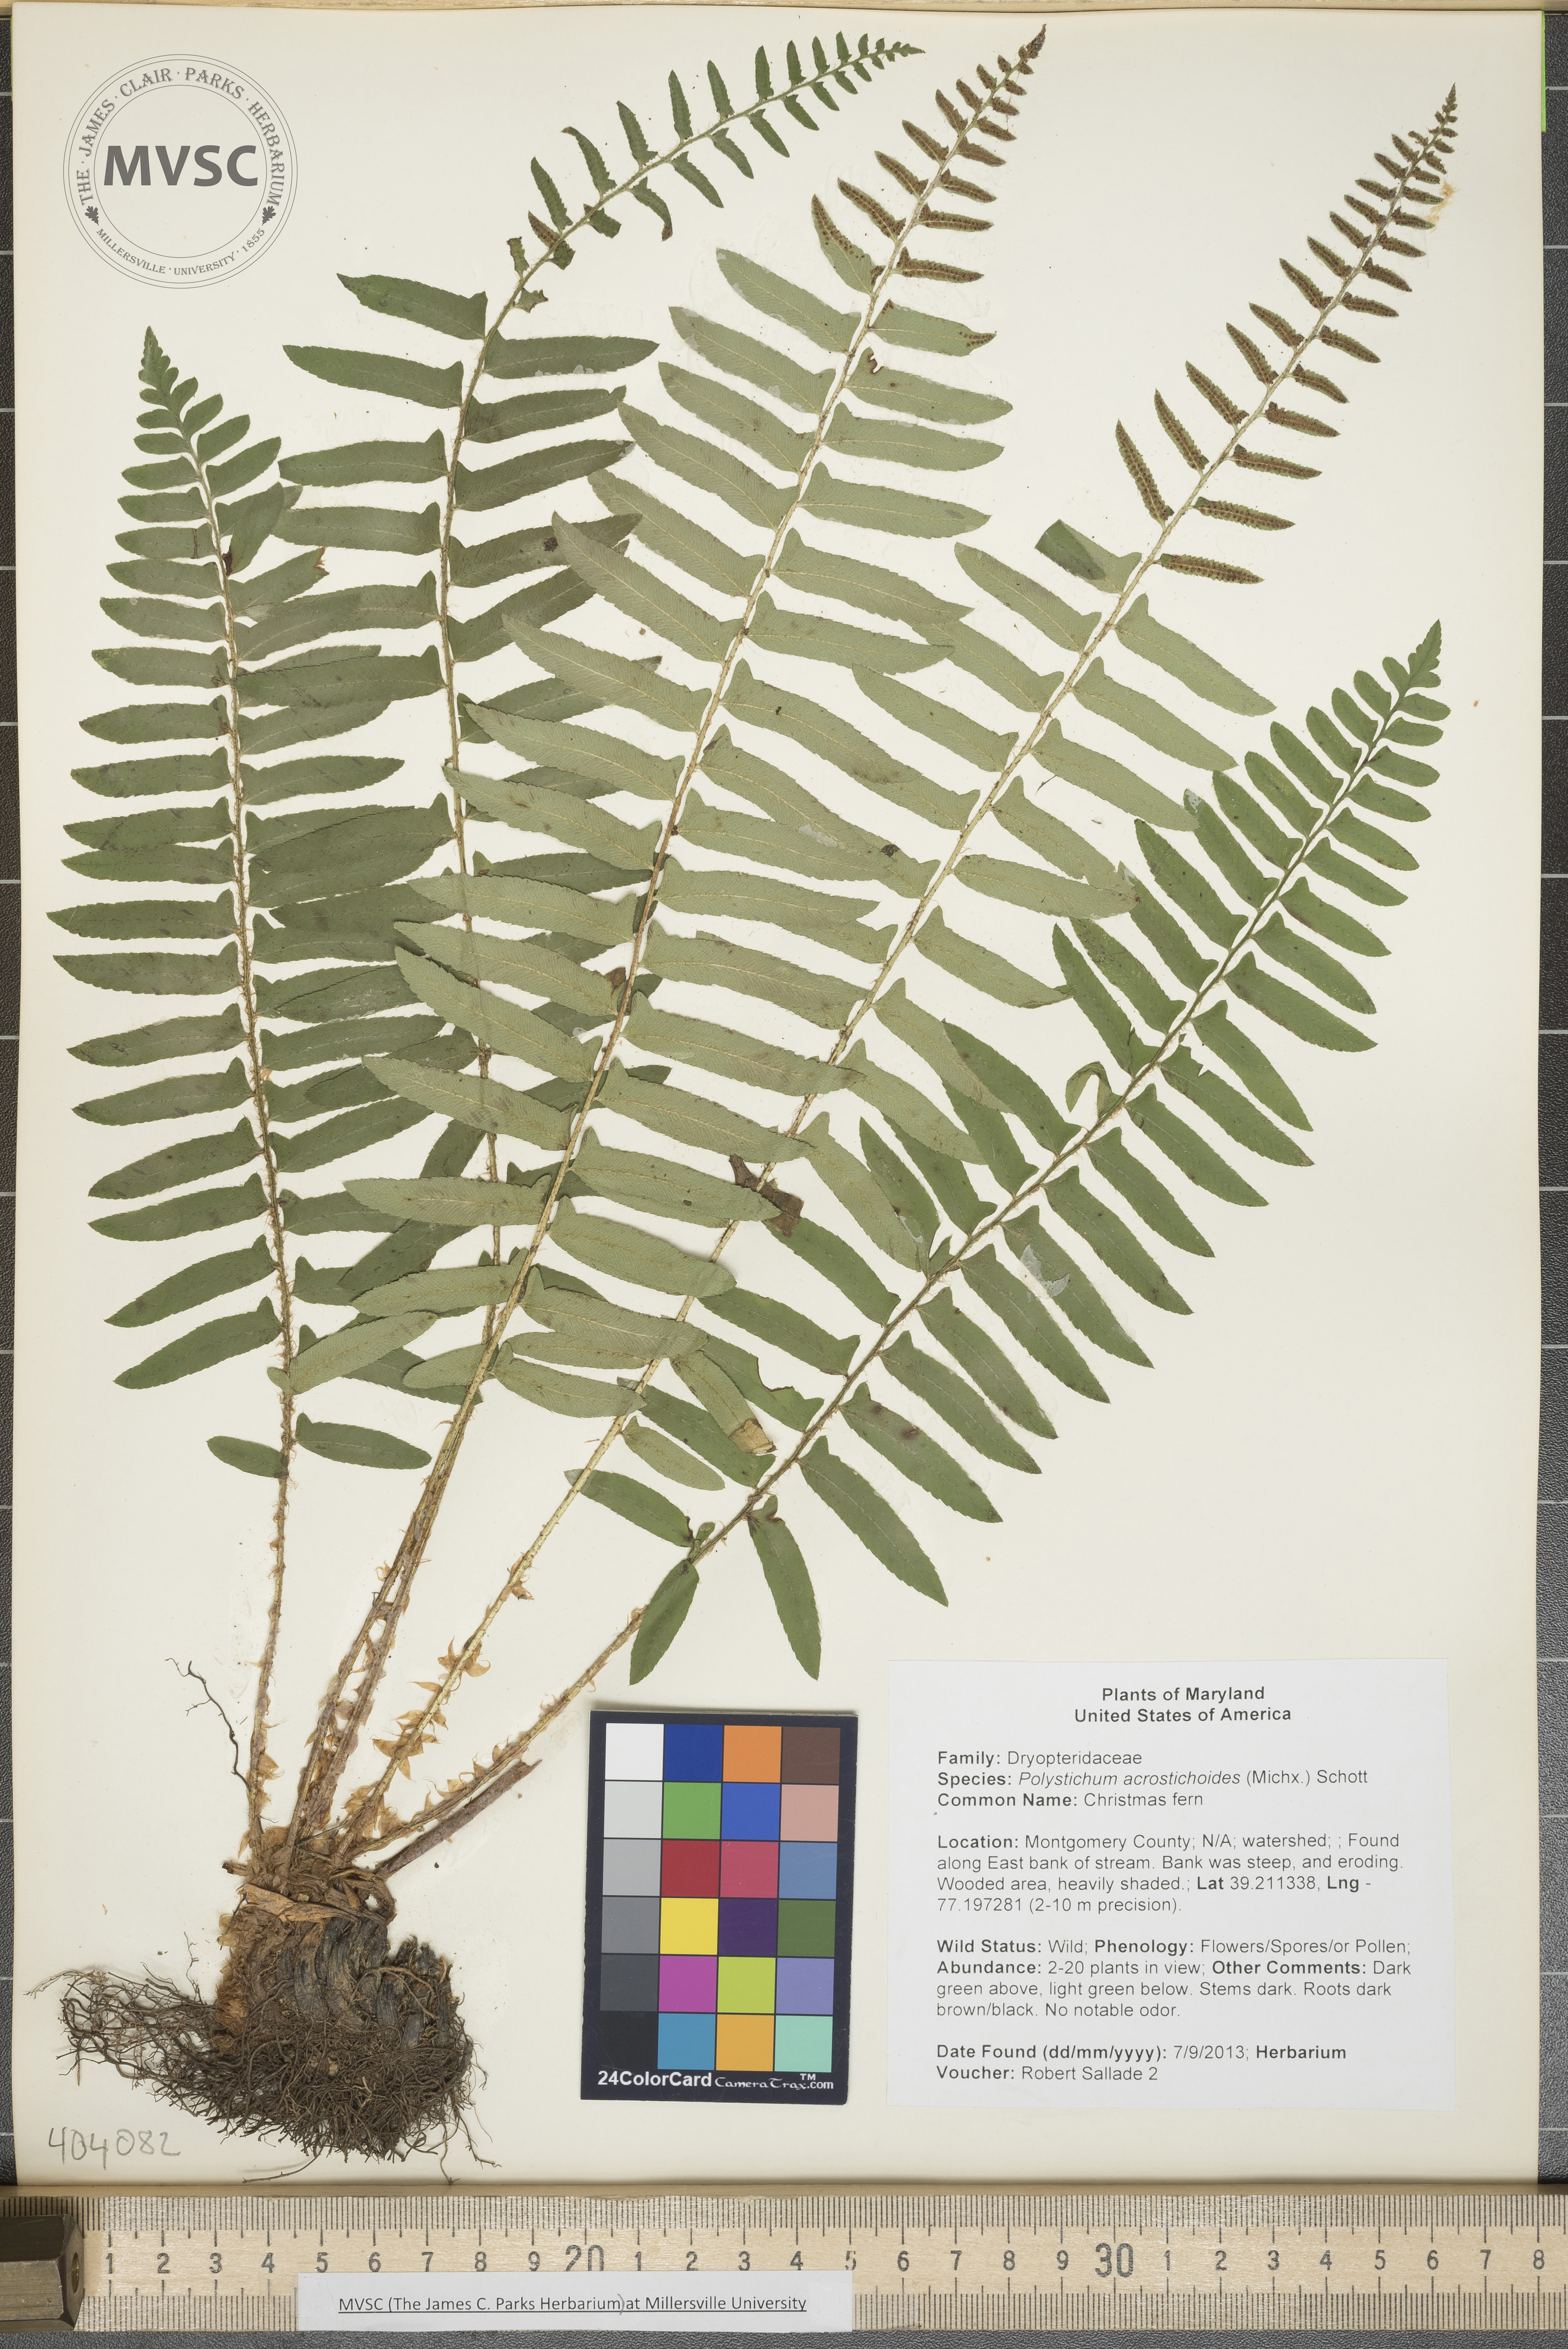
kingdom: Plantae
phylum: Tracheophyta
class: Polypodiopsida
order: Polypodiales
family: Dryopteridaceae
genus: Polystichum
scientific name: Polystichum acrostichoides
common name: Christmas fern
